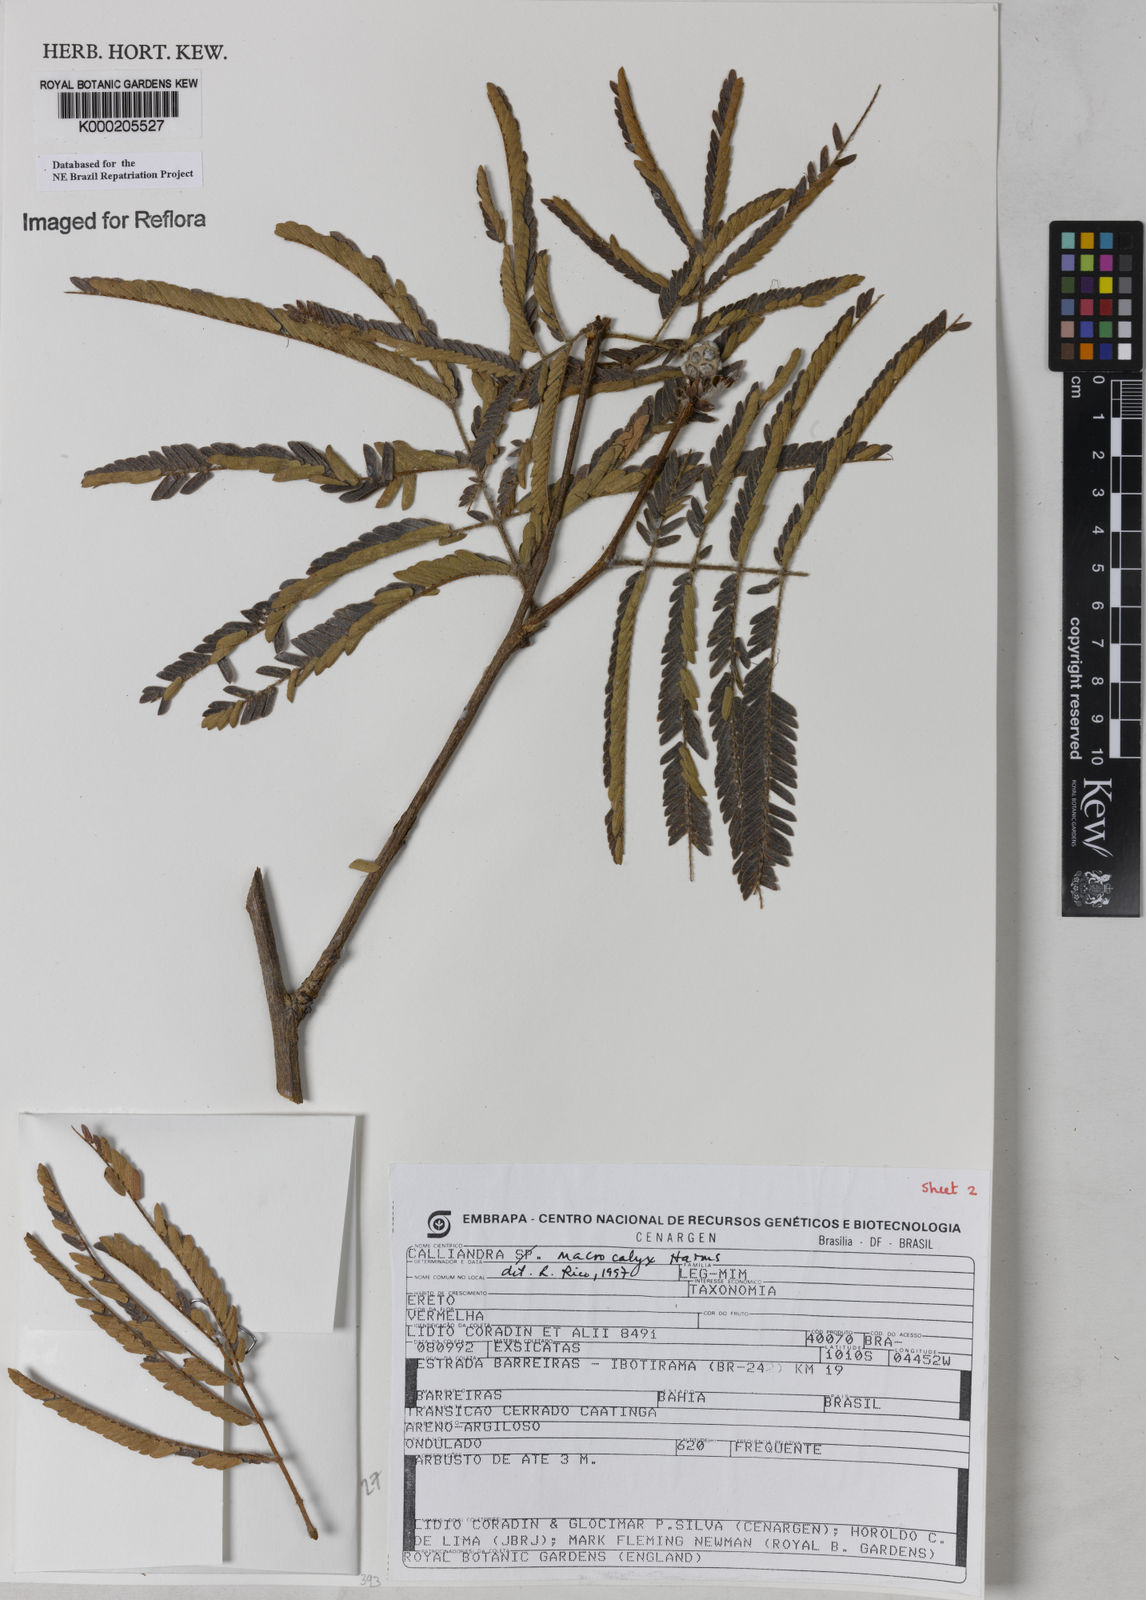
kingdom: Plantae
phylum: Tracheophyta
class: Magnoliopsida
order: Fabales
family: Fabaceae
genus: Calliandra
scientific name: Calliandra macrocalyx
